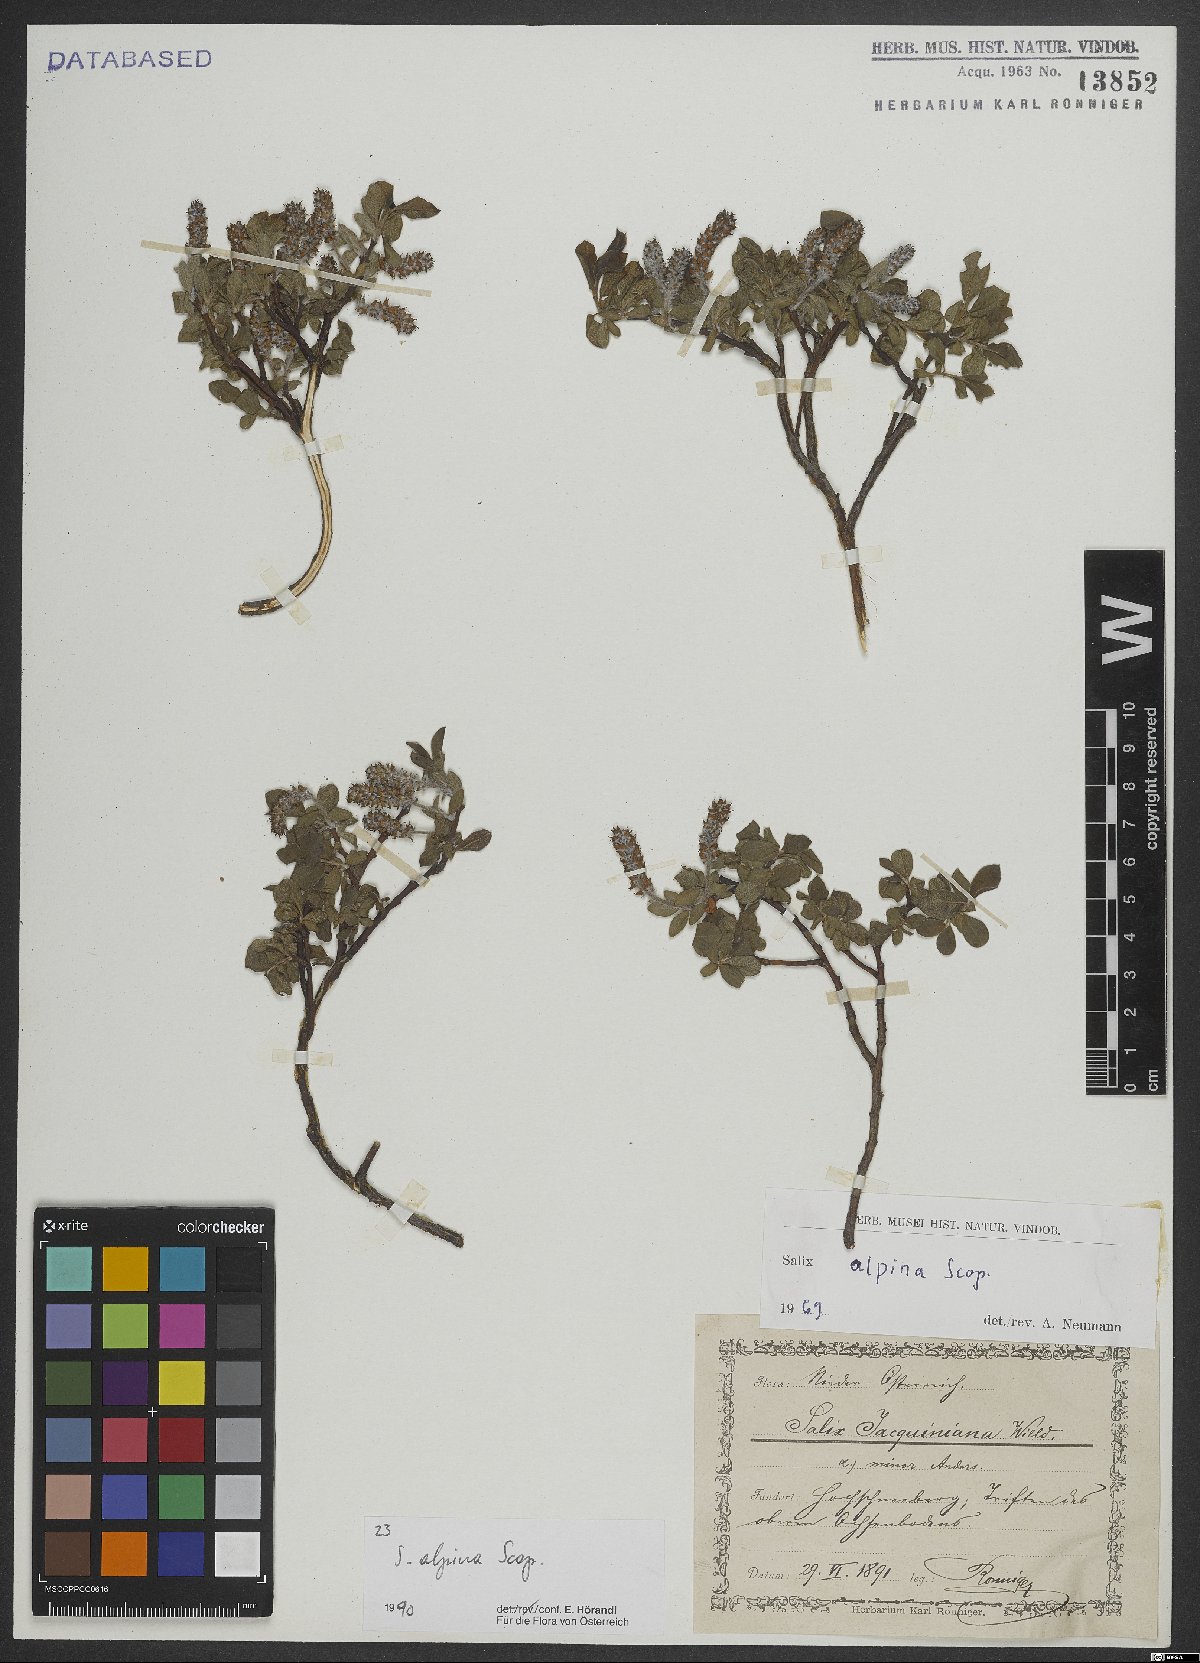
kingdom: Plantae
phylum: Tracheophyta
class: Magnoliopsida
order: Malpighiales
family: Salicaceae
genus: Salix
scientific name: Salix alpina
